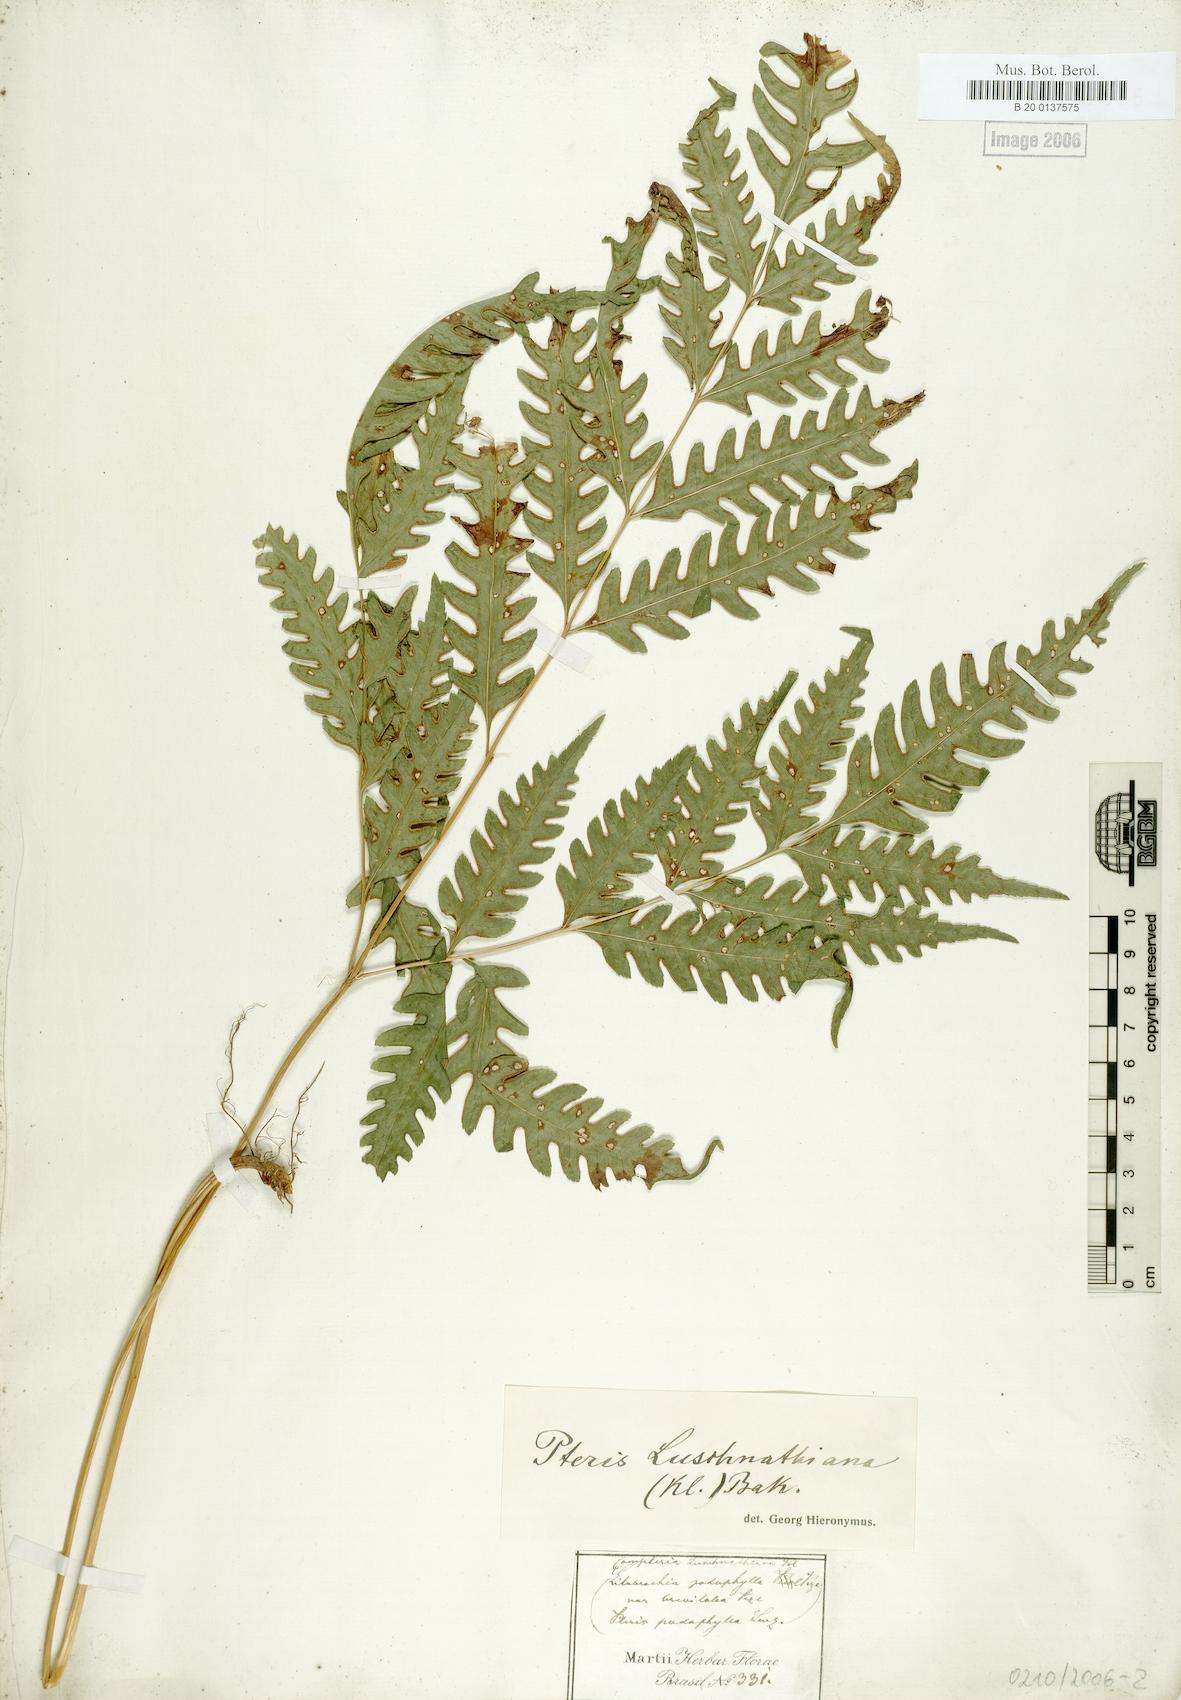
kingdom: Plantae
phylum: Tracheophyta
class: Polypodiopsida
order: Polypodiales
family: Pteridaceae
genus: Pteris
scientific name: Pteris propinqua
